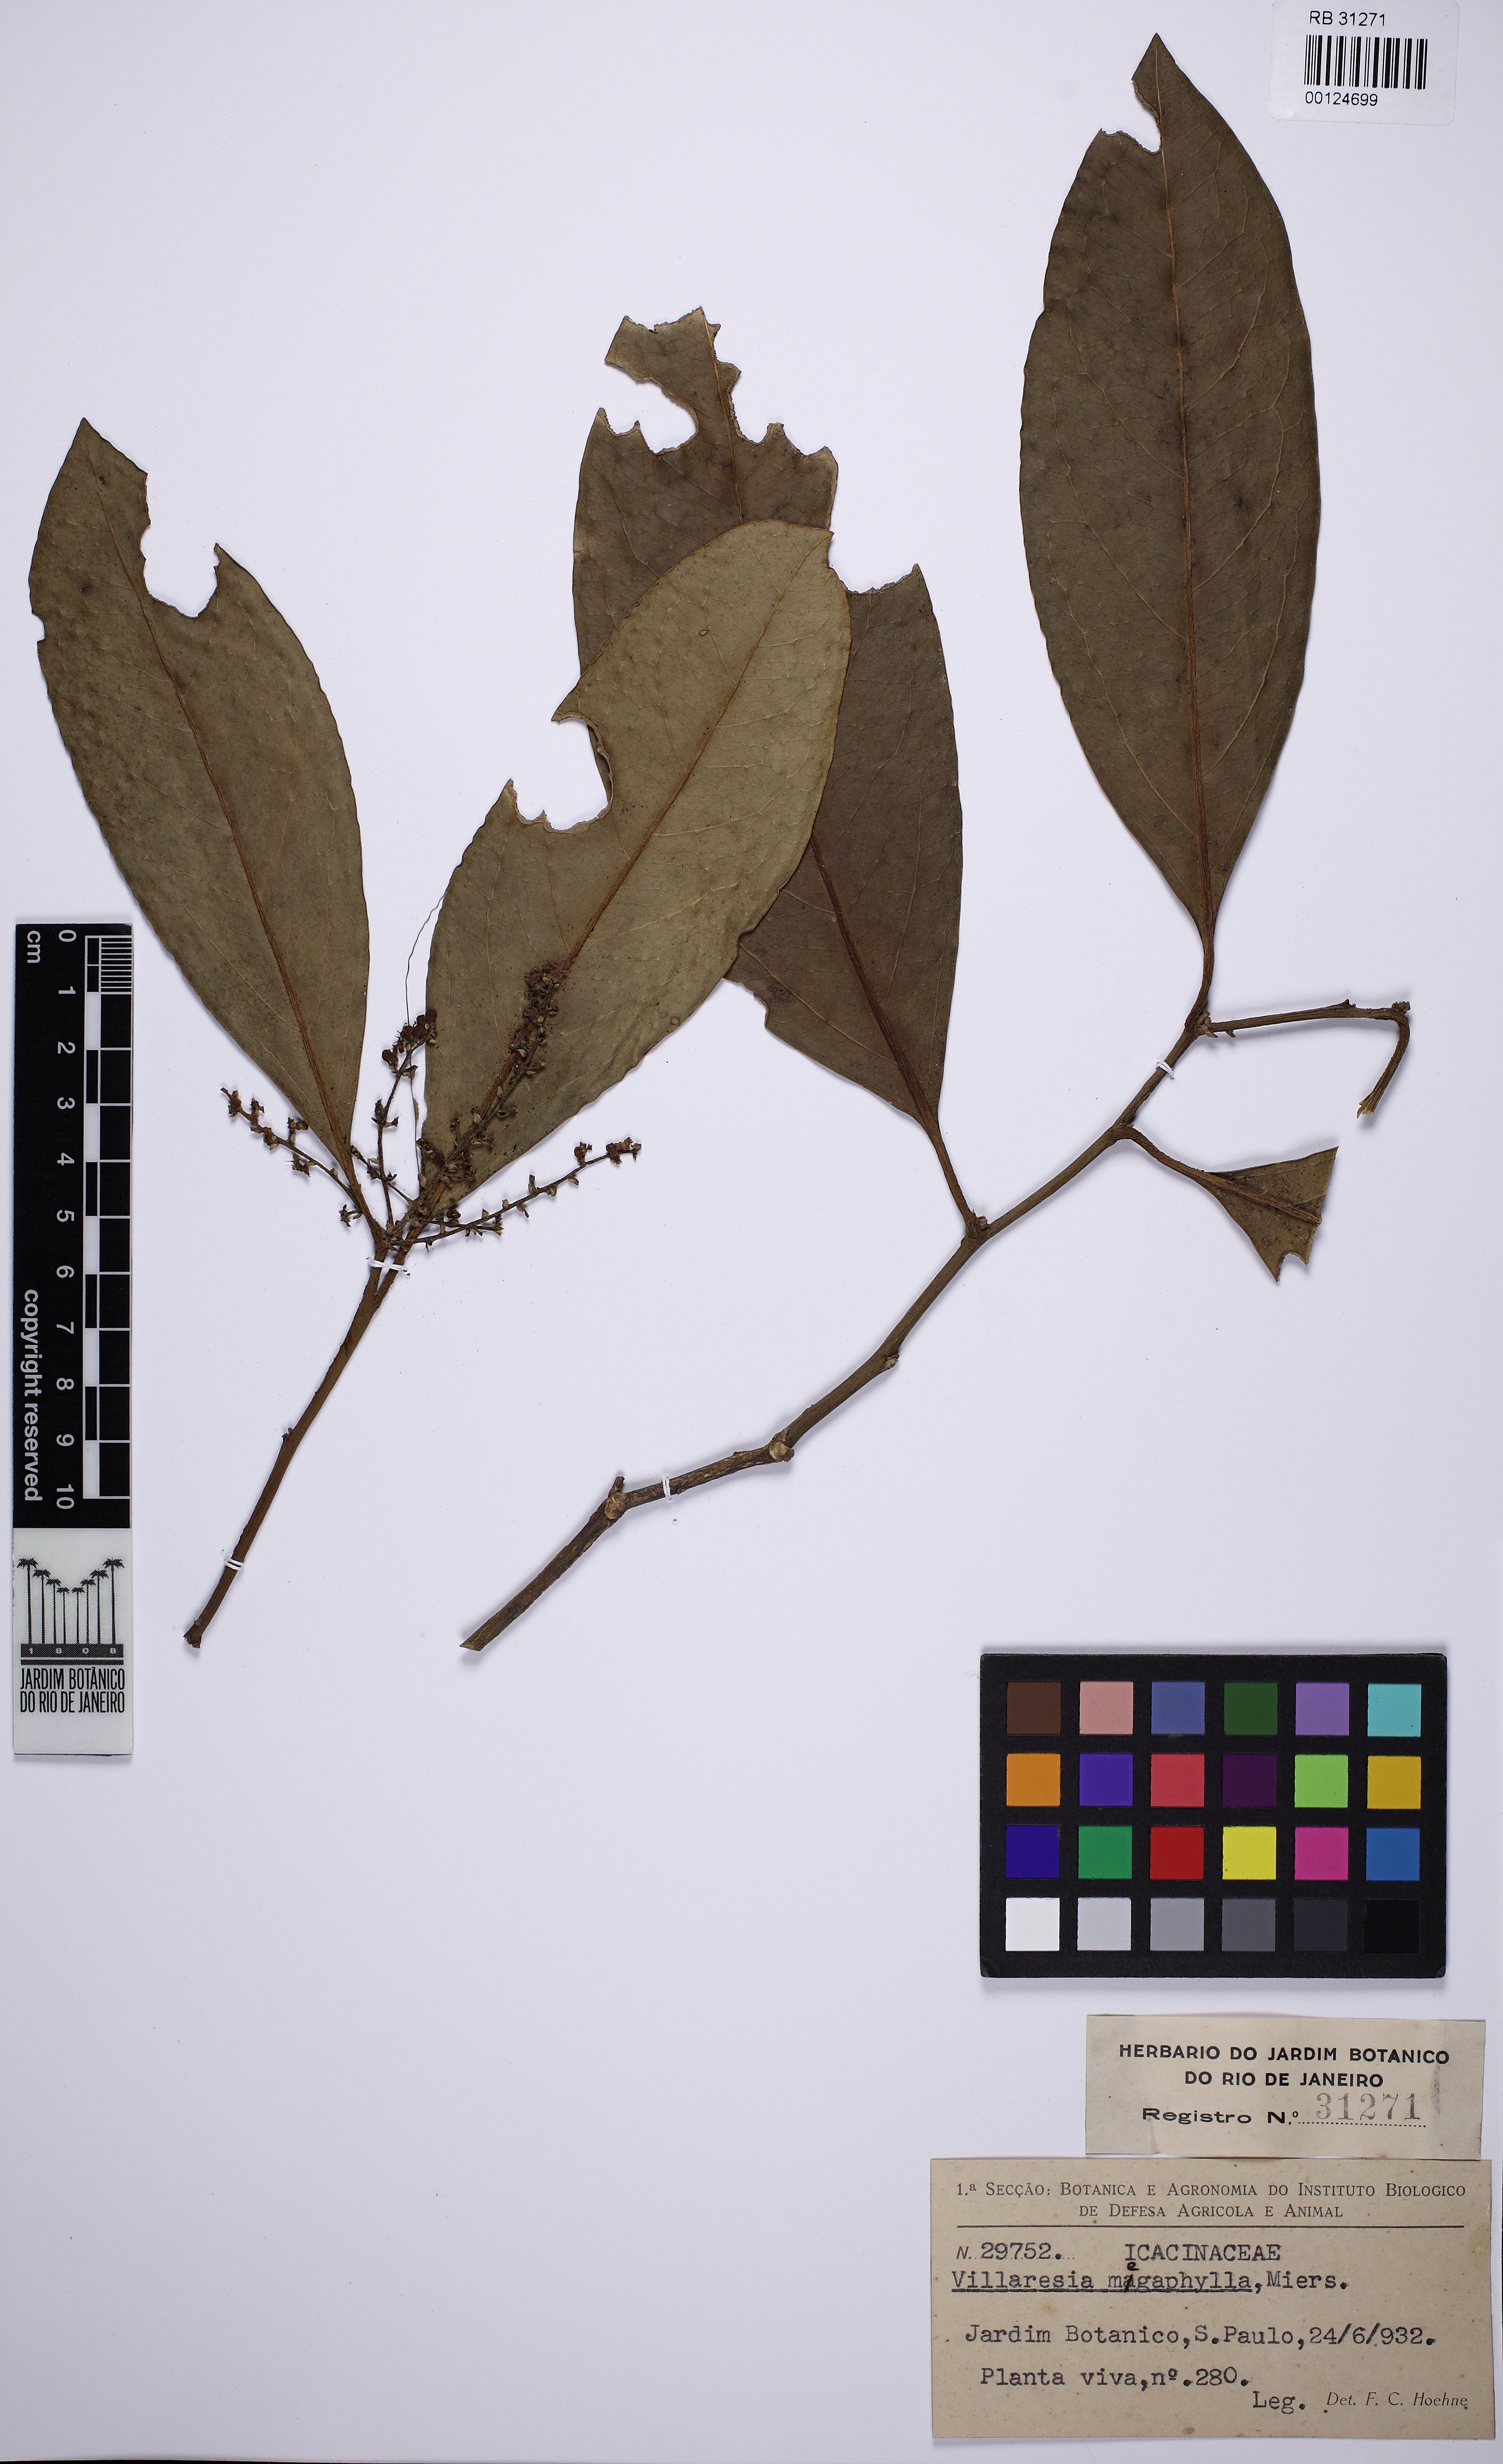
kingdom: Plantae
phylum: Tracheophyta
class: Magnoliopsida
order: Cardiopteridales
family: Cardiopteridaceae
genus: Citronella
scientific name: Citronella paniculata
